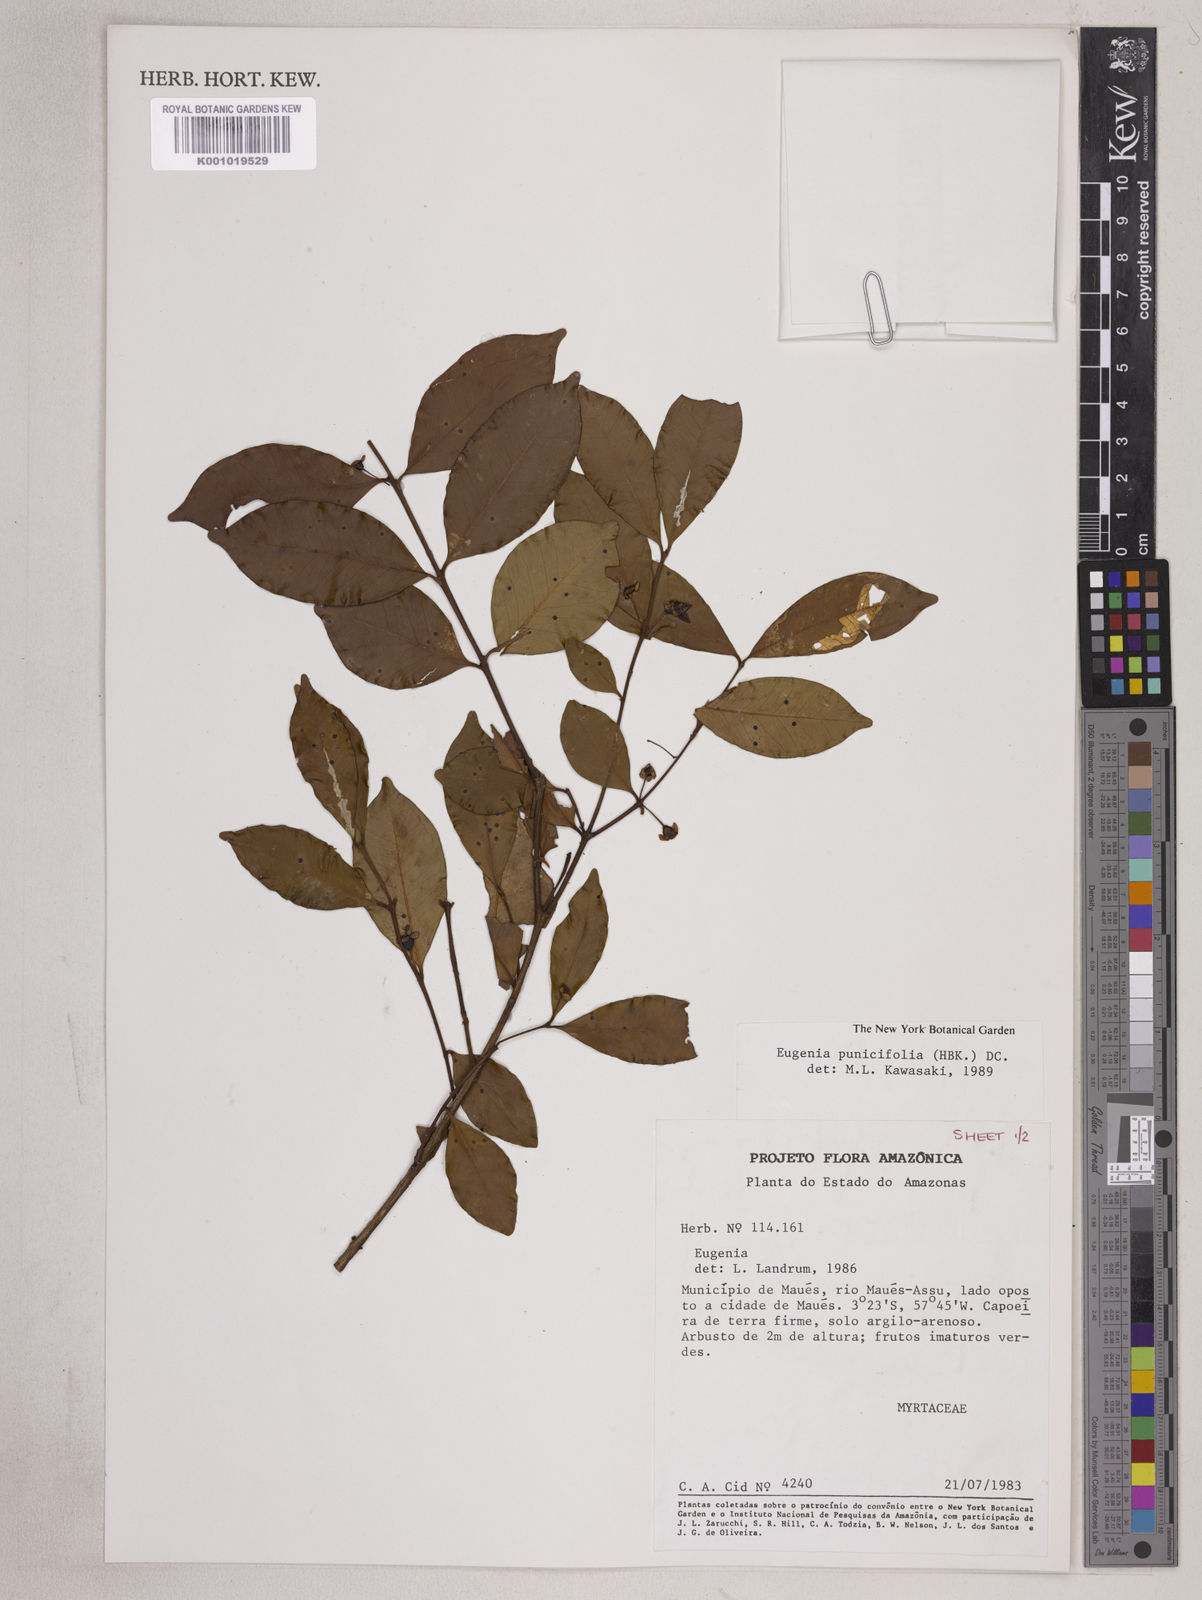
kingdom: Plantae
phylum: Tracheophyta
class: Magnoliopsida
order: Myrtales
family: Myrtaceae
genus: Eugenia
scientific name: Eugenia punicifolia
